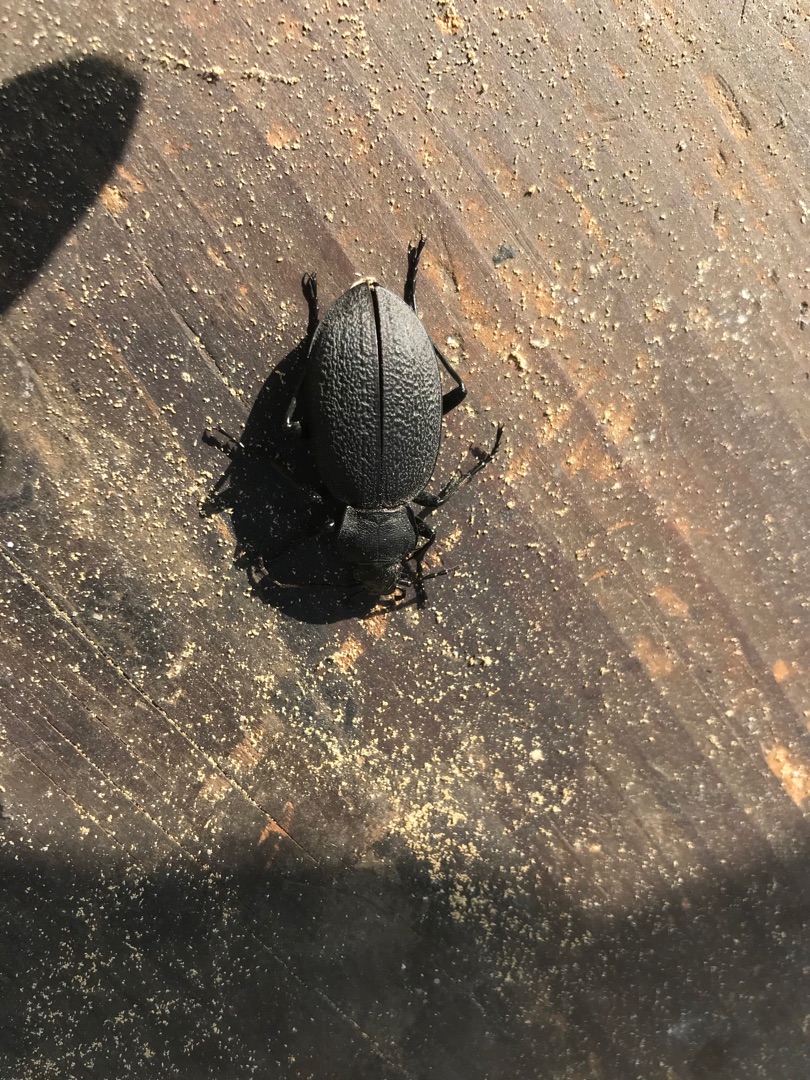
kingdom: Animalia
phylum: Arthropoda
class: Insecta
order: Coleoptera
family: Carabidae
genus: Carabus
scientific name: Carabus coriaceus
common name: Læderløber
